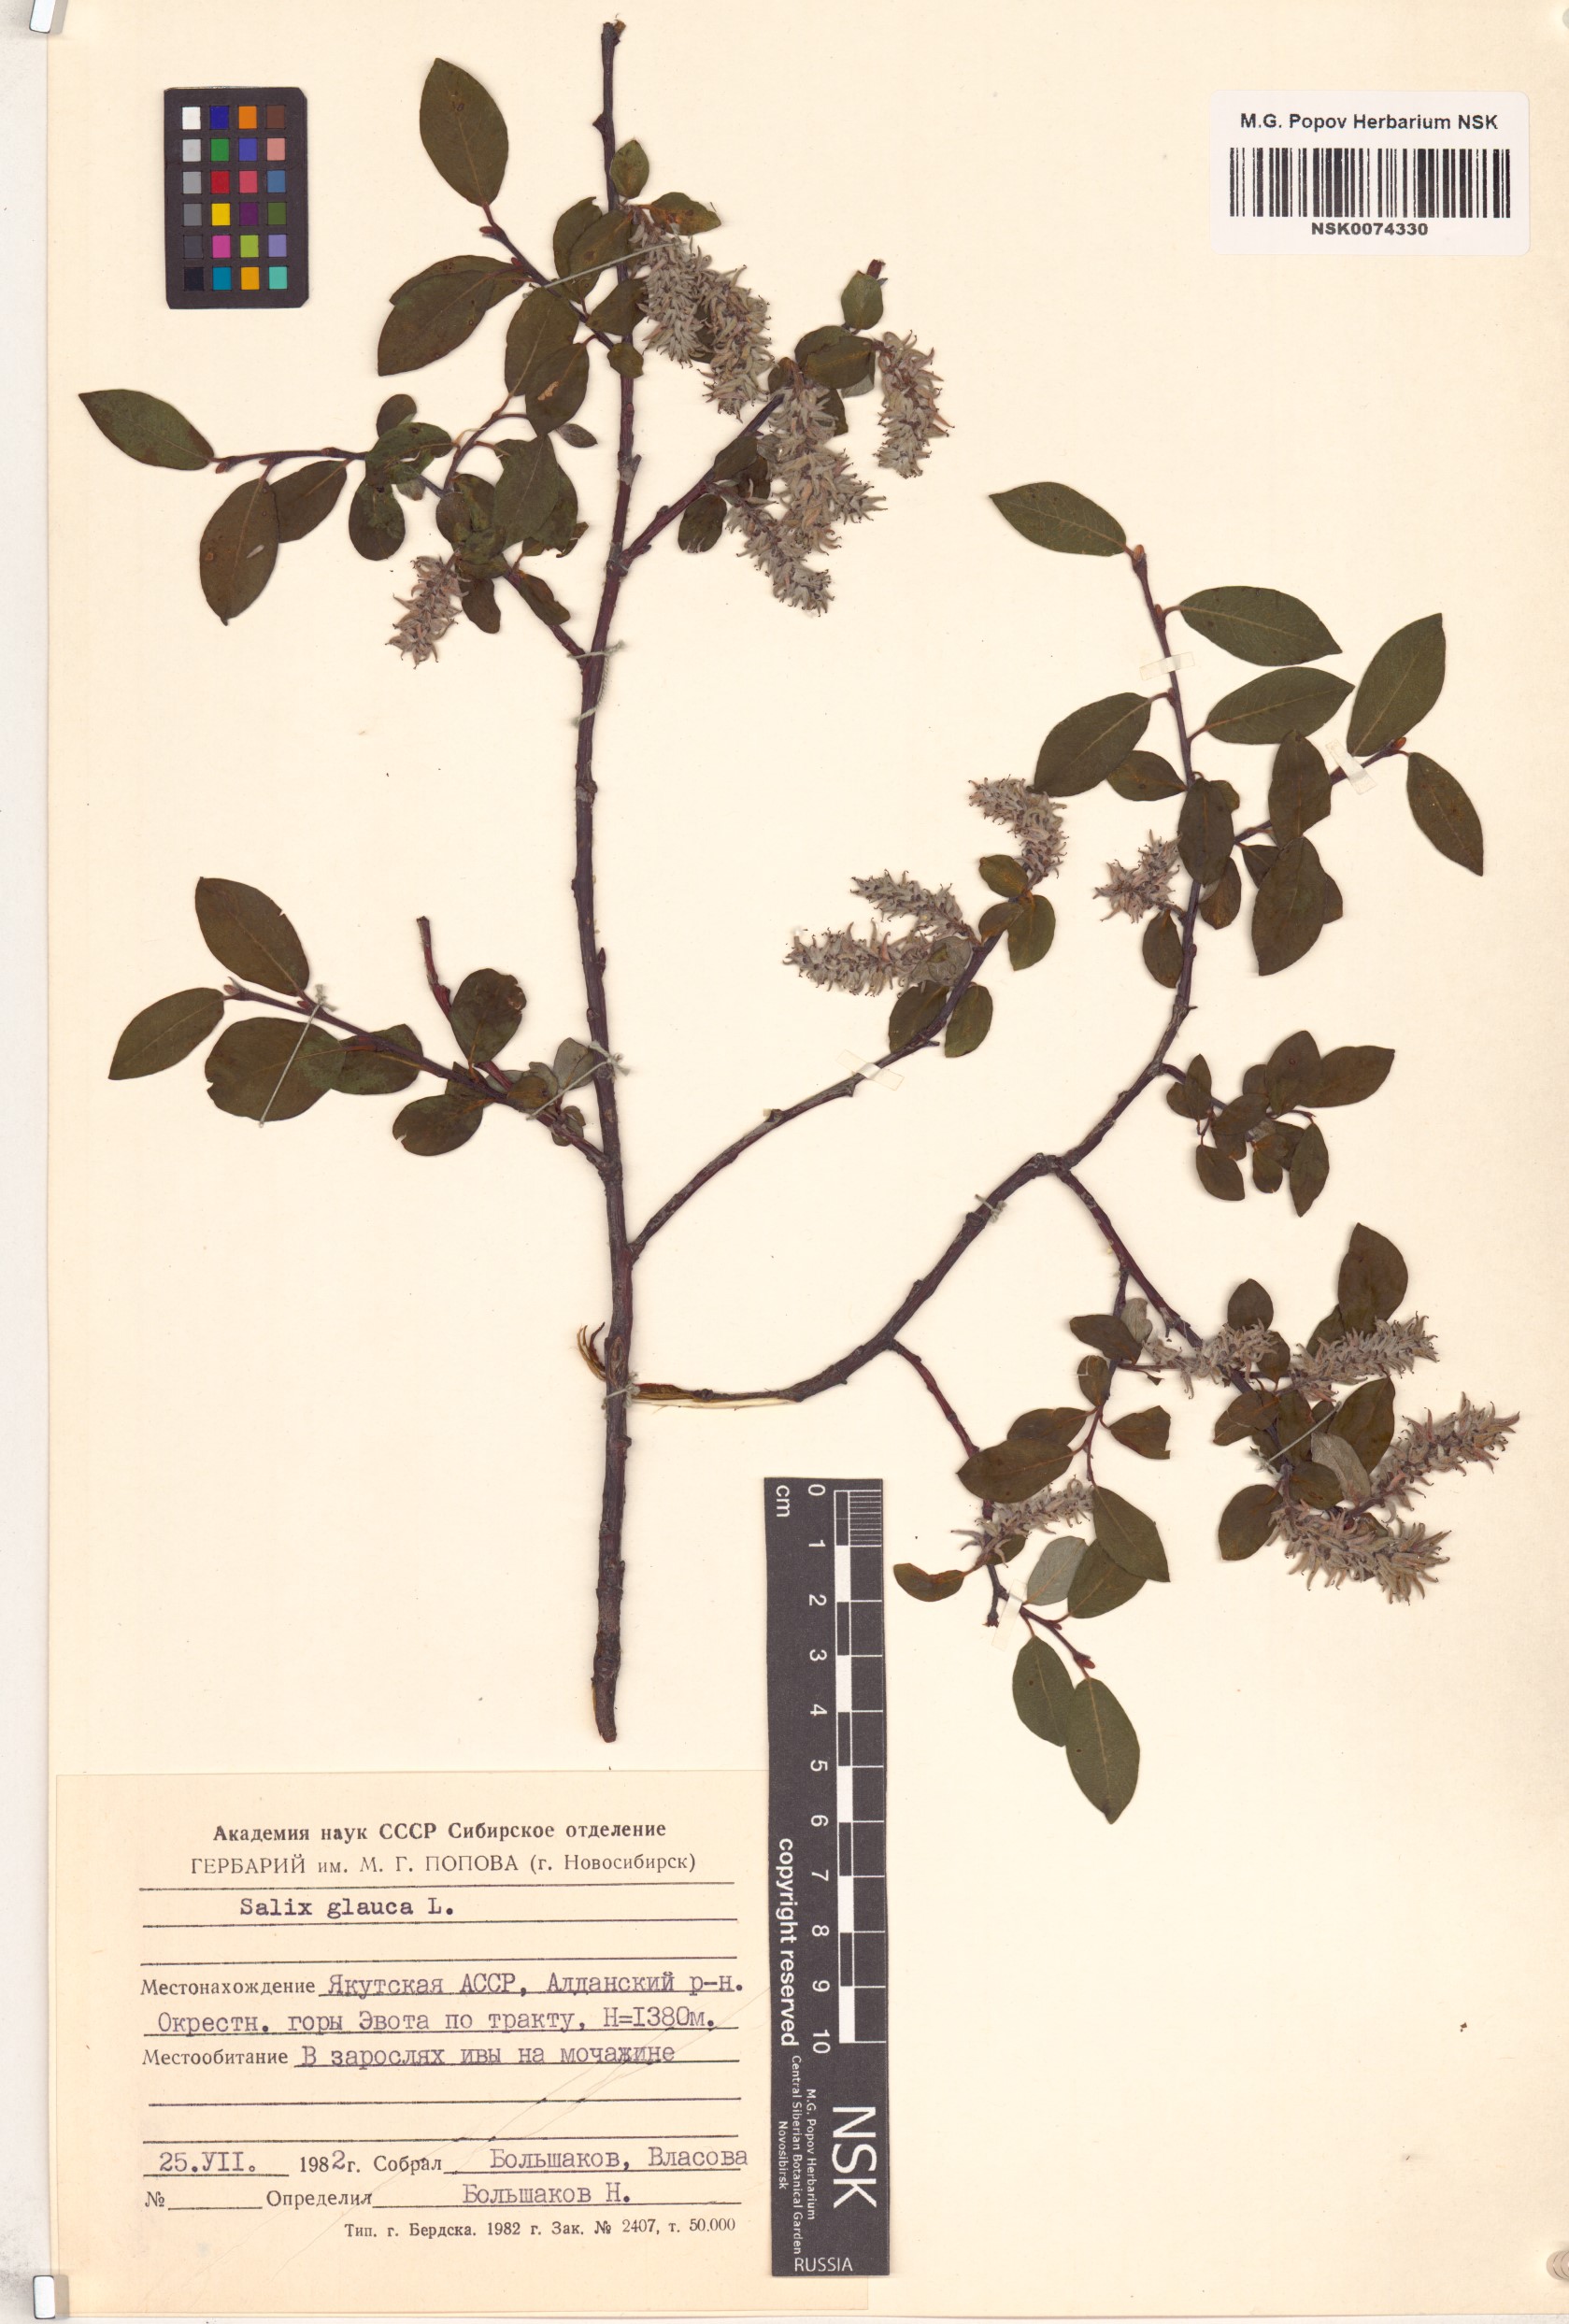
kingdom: Plantae
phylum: Tracheophyta
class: Magnoliopsida
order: Malpighiales
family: Salicaceae
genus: Salix
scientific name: Salix glauca
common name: Glaucous willow
